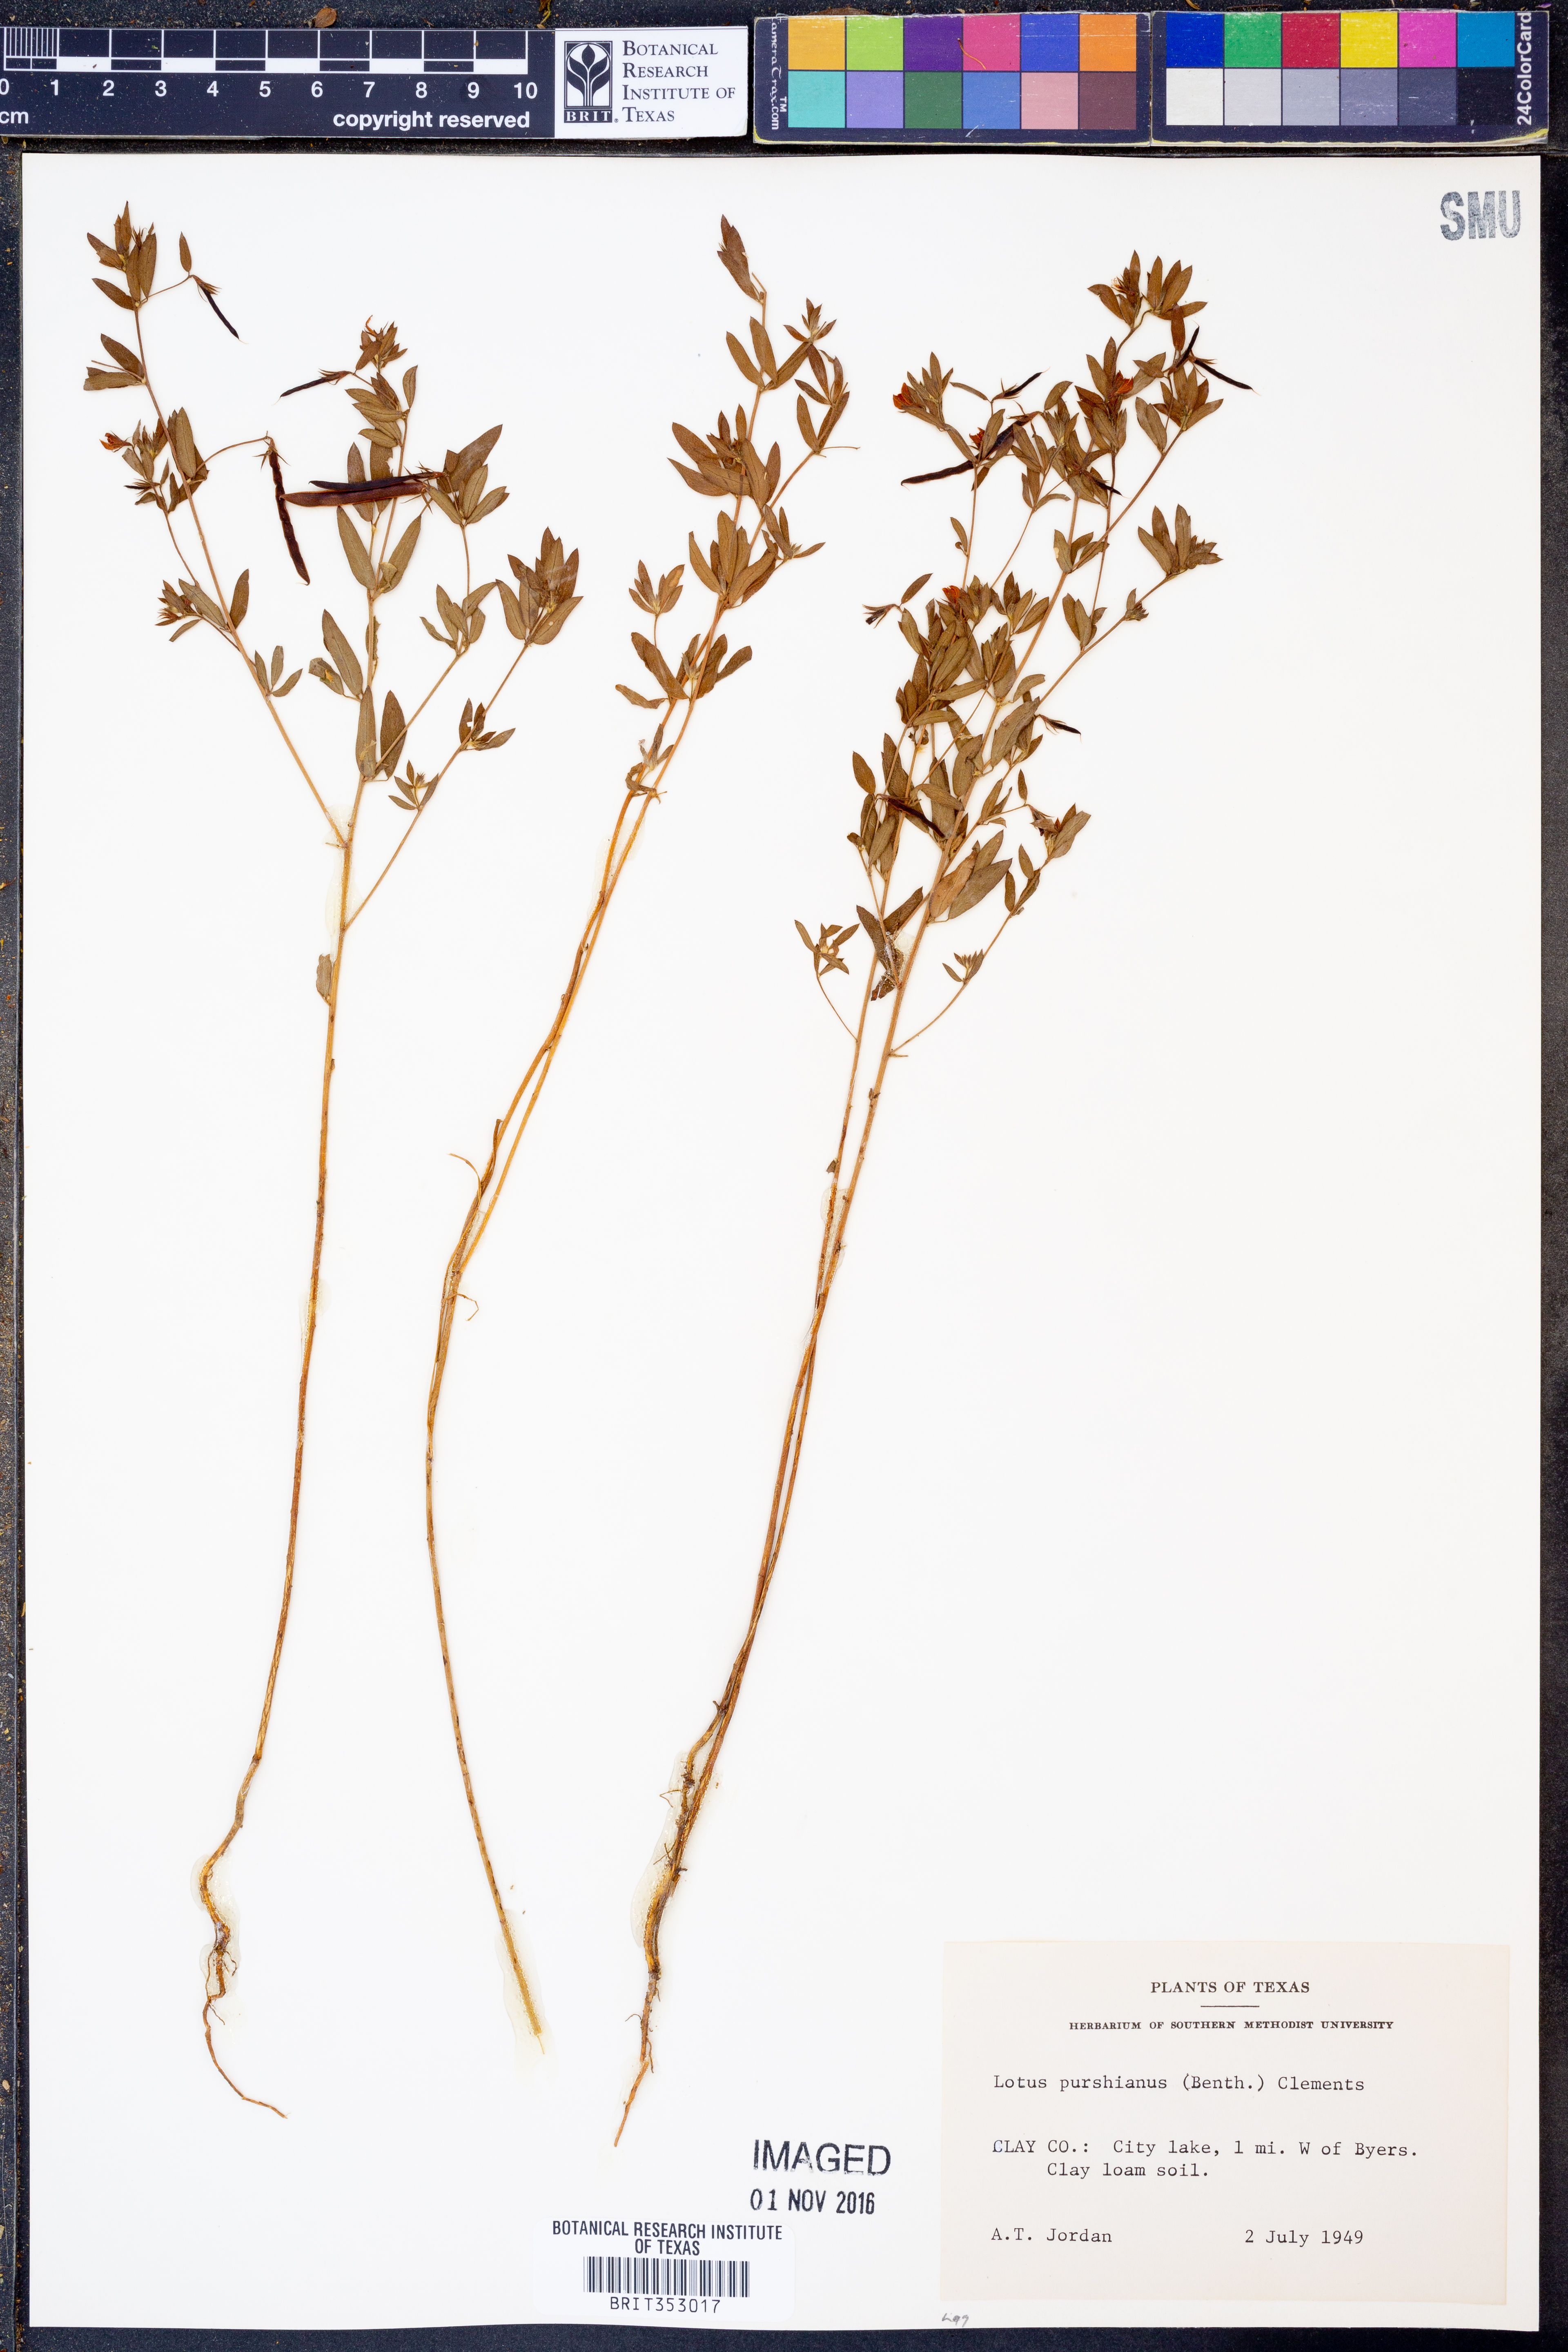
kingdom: Plantae
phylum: Tracheophyta
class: Magnoliopsida
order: Fabales
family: Fabaceae
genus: Acmispon
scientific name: Acmispon americanus
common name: American bird's-foot trefoil
